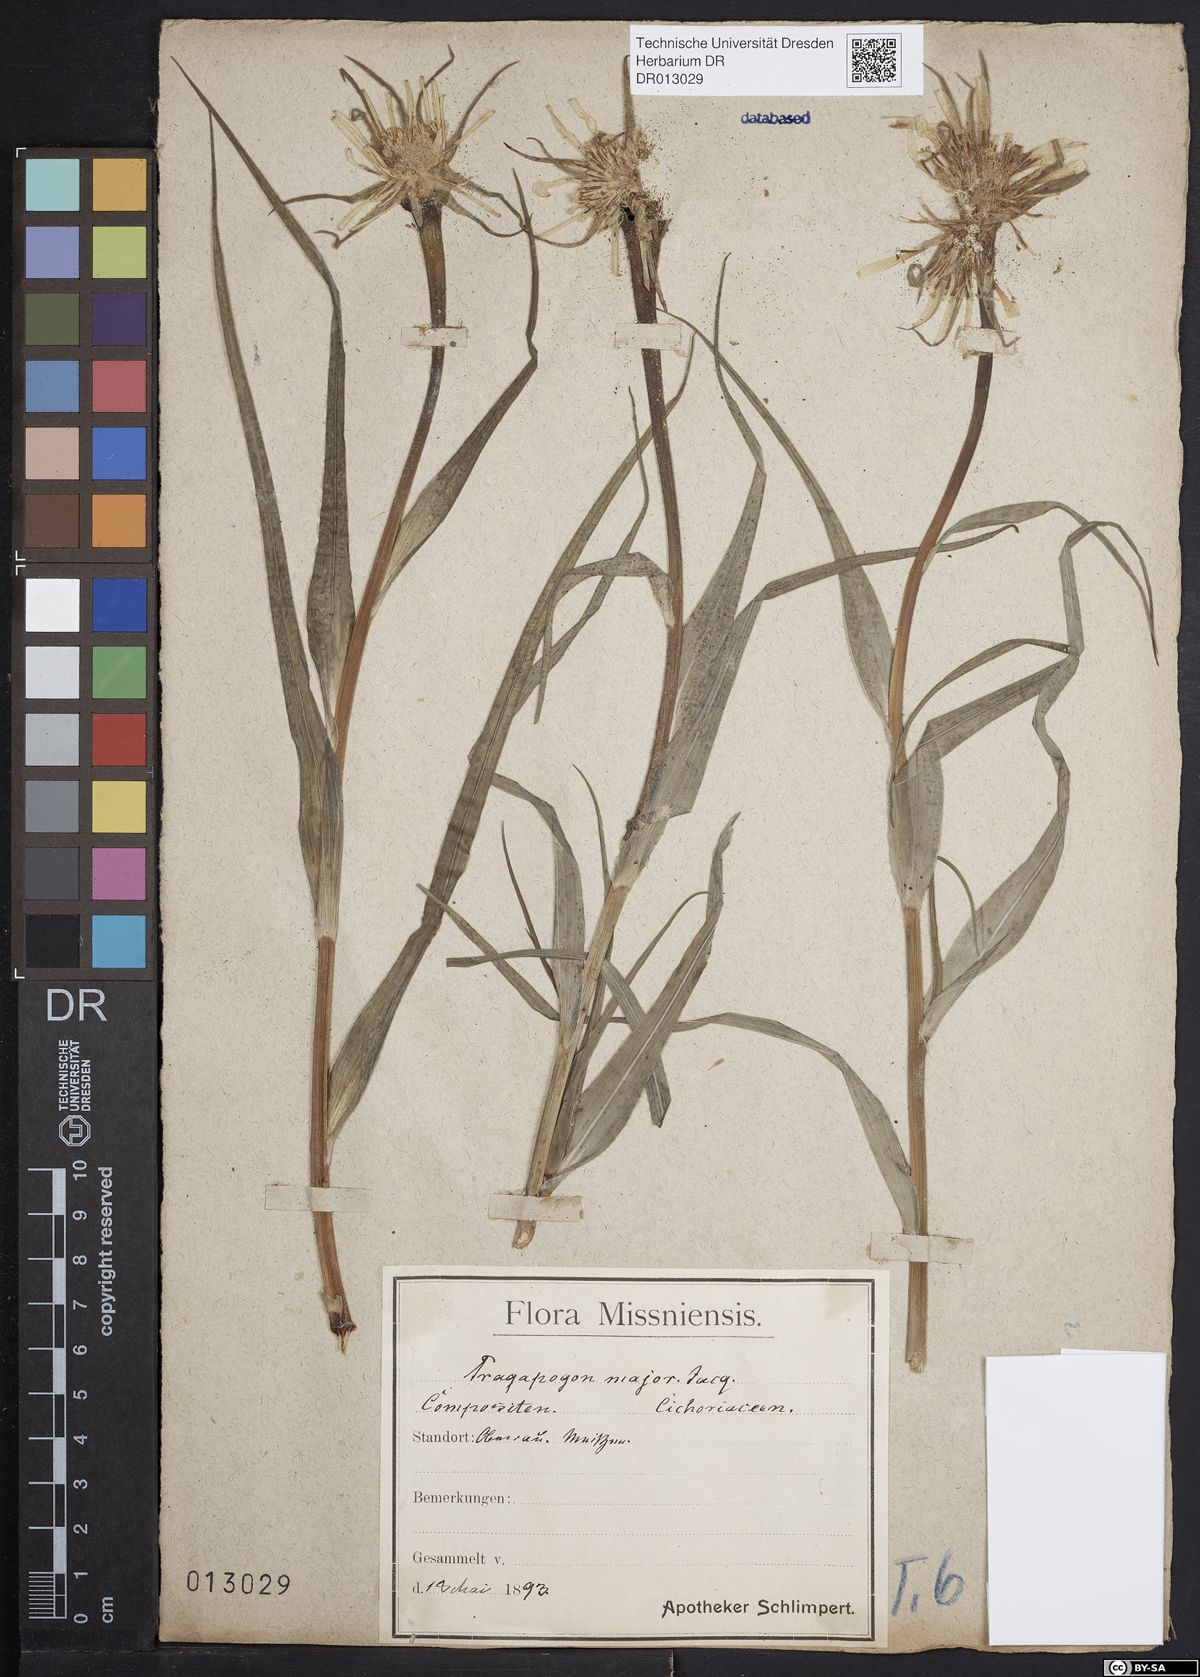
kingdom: Plantae
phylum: Tracheophyta
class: Magnoliopsida
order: Asterales
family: Asteraceae
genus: Tragopogon
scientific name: Tragopogon dubius
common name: Yellow salsify
